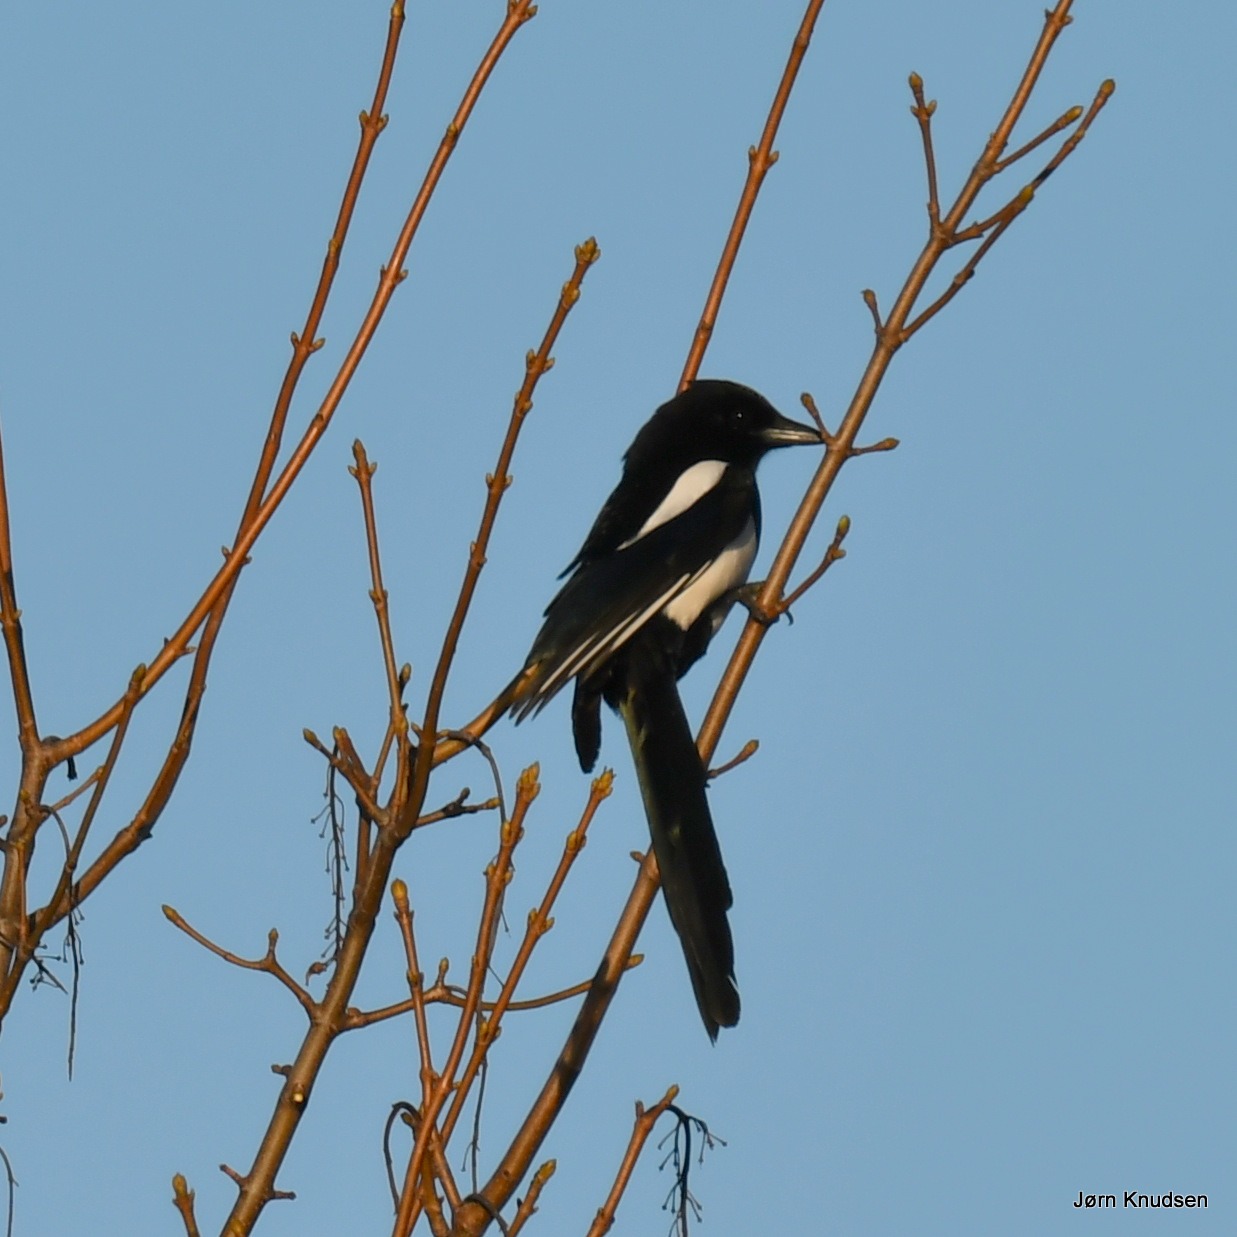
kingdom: Animalia
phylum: Chordata
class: Aves
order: Passeriformes
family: Corvidae
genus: Pica
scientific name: Pica pica
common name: Husskade
